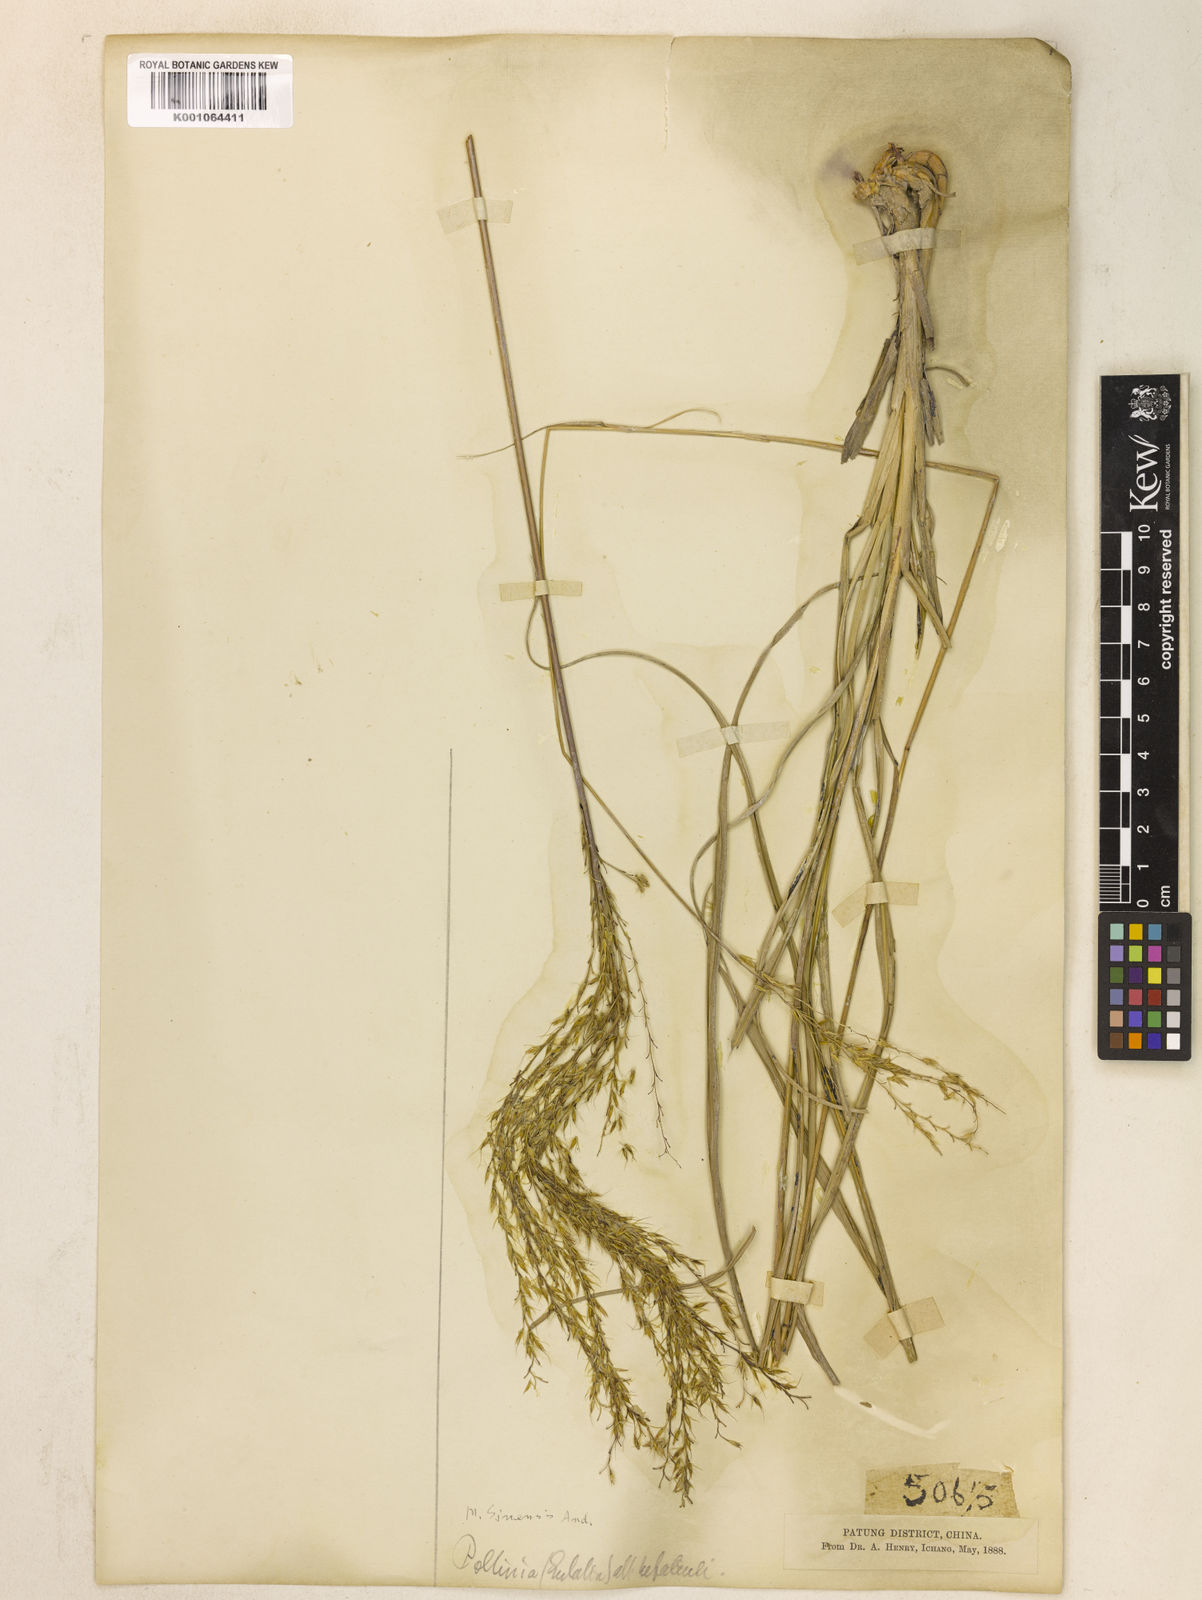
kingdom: Plantae
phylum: Tracheophyta
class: Liliopsida
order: Poales
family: Poaceae
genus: Miscanthus
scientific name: Miscanthus sinensis
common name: Chinese silvergrass
